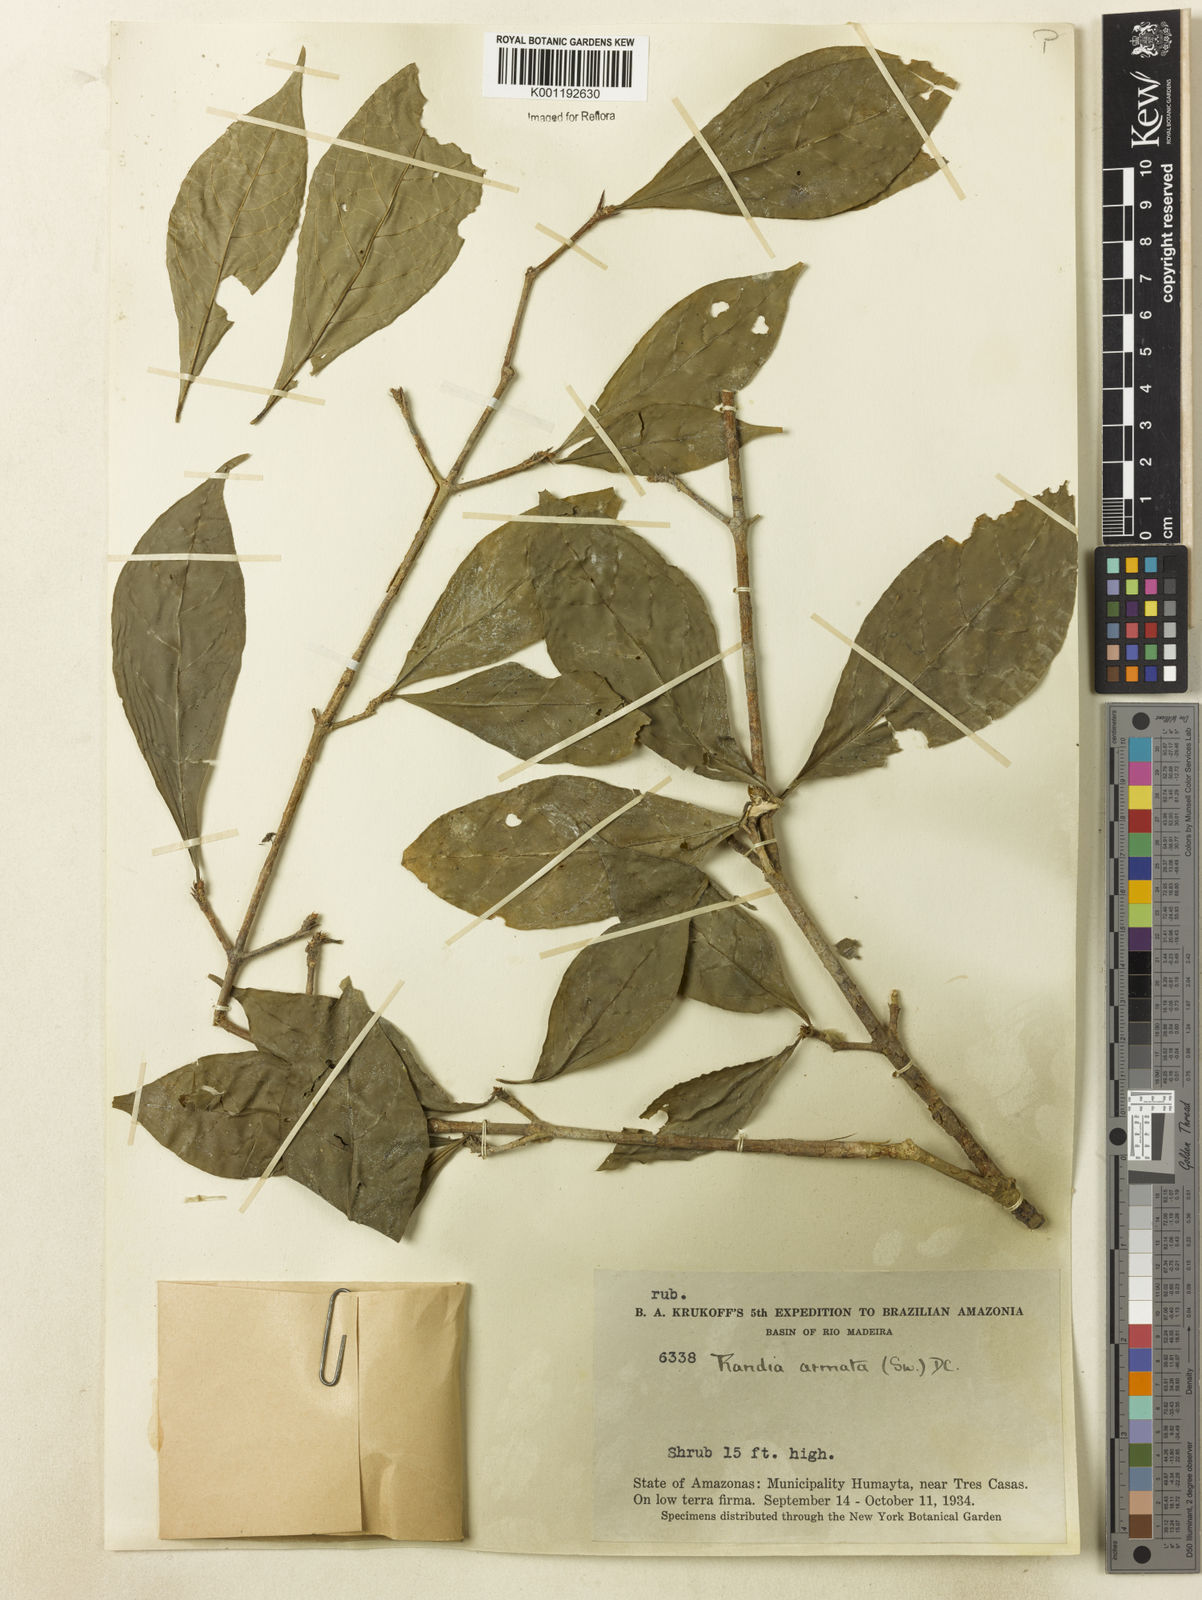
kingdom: Plantae
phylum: Tracheophyta
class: Magnoliopsida
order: Gentianales
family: Rubiaceae
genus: Randia
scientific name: Randia armata
